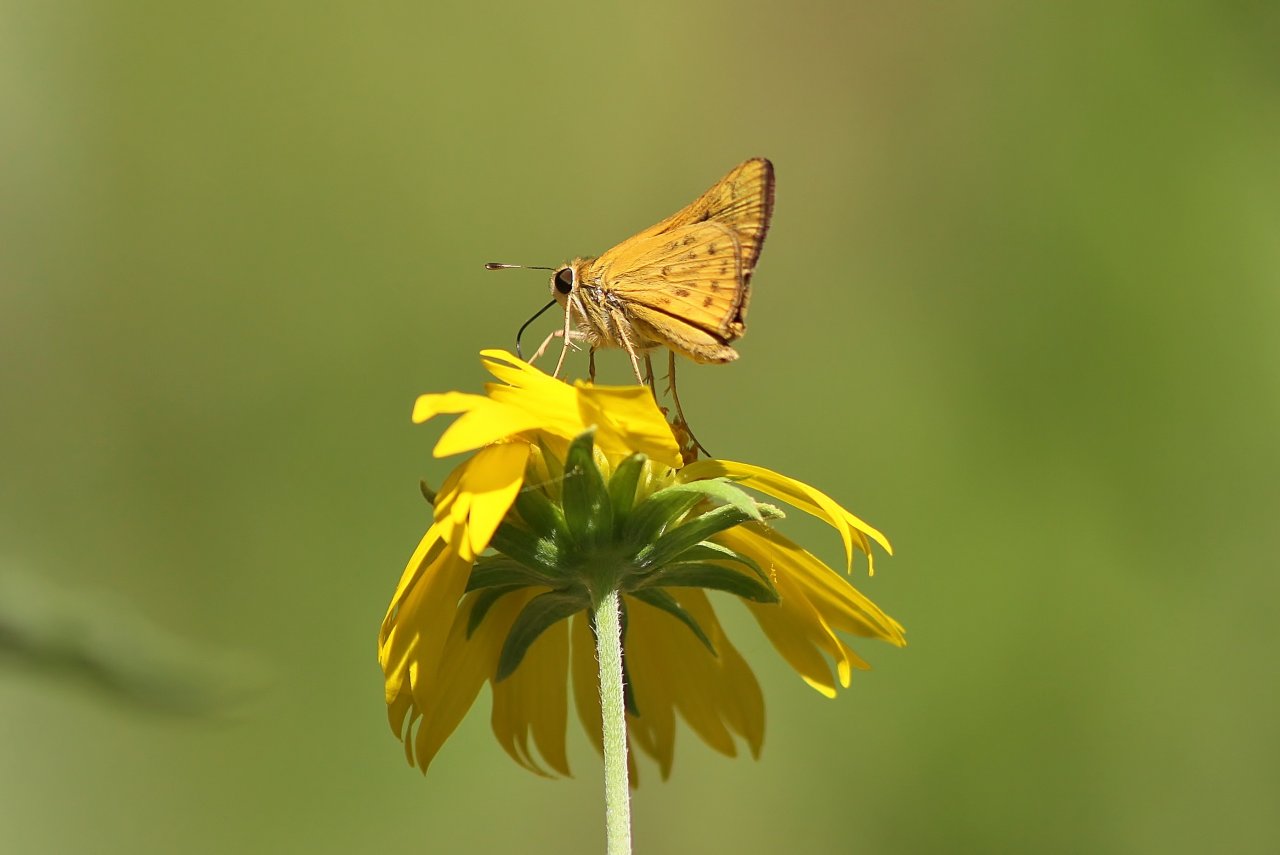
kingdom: Animalia
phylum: Arthropoda
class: Insecta
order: Lepidoptera
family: Hesperiidae
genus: Hylephila
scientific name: Hylephila phyleus
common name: Fiery Skipper
